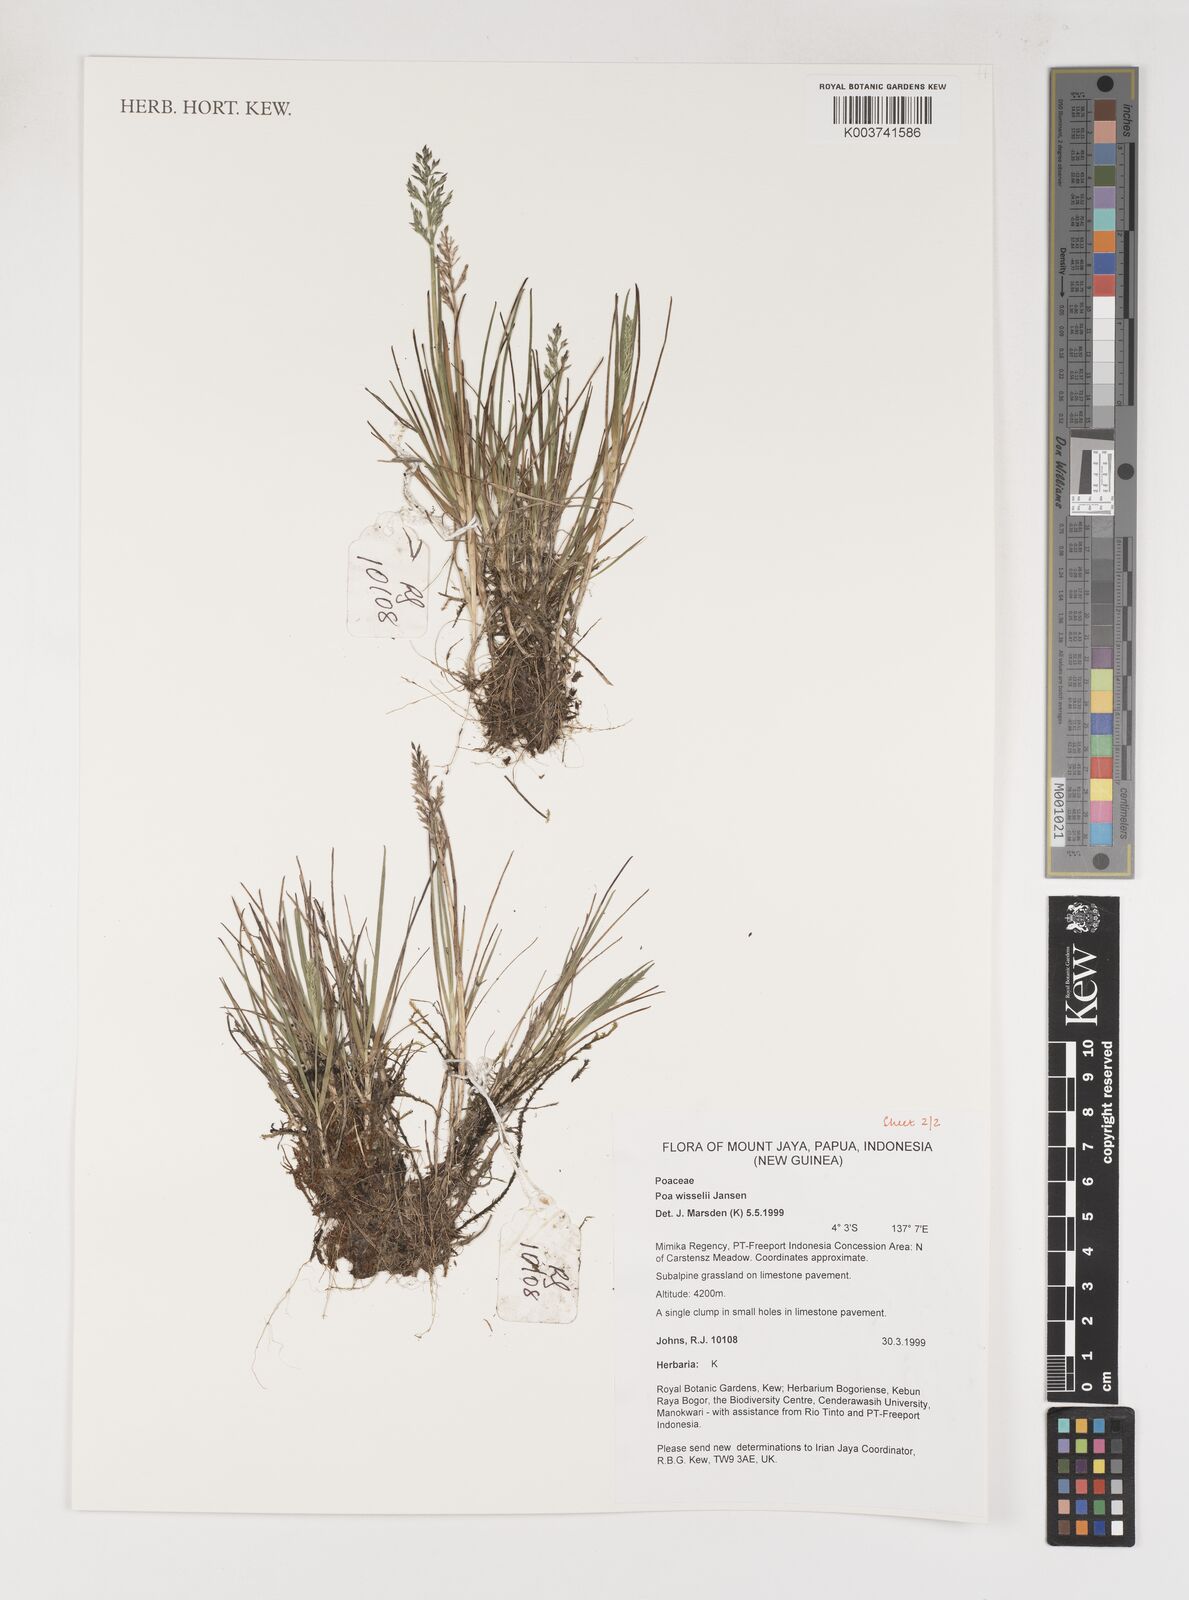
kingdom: Plantae
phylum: Tracheophyta
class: Liliopsida
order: Poales
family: Poaceae
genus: Poa
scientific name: Poa wisselii
